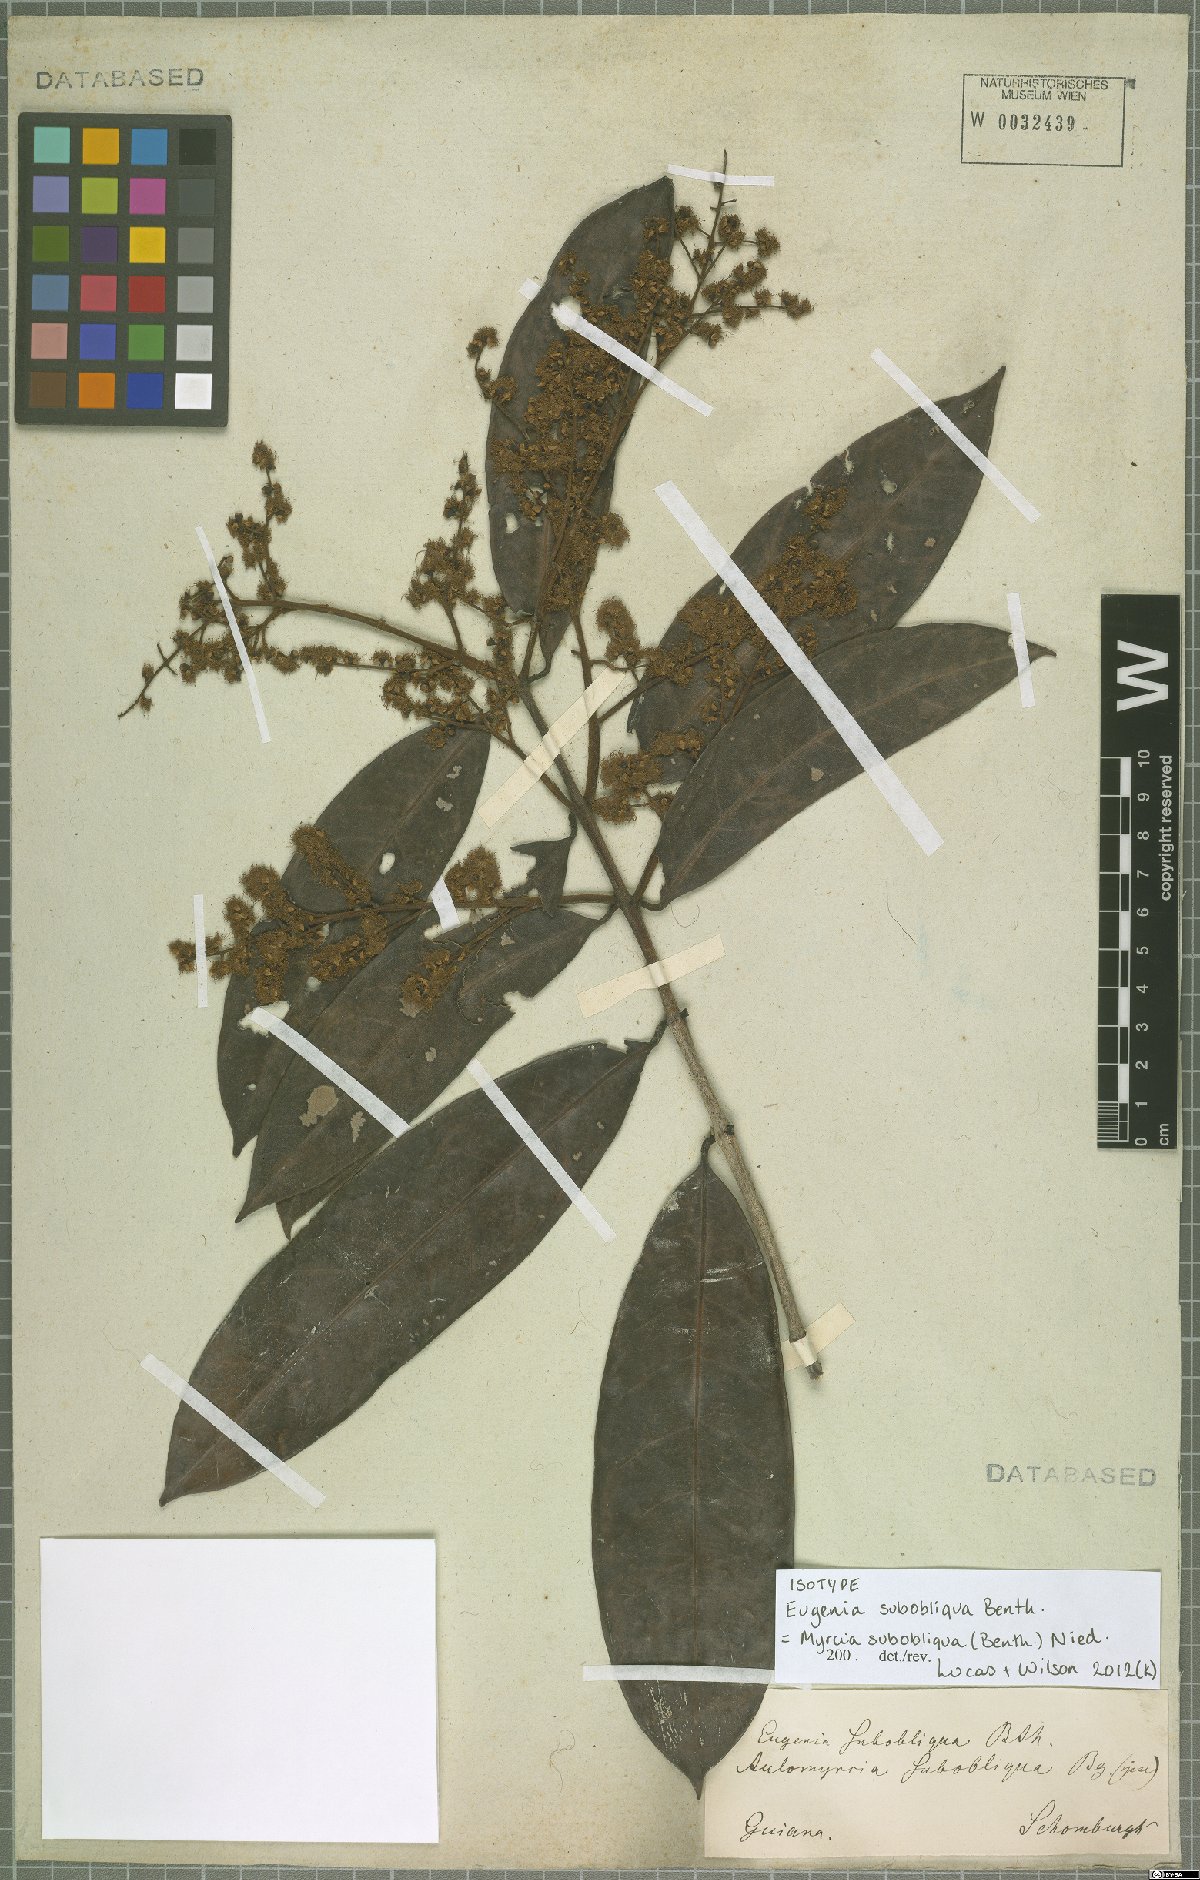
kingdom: Plantae
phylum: Tracheophyta
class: Magnoliopsida
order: Myrtales
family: Myrtaceae
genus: Myrcia
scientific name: Myrcia subobliqua
